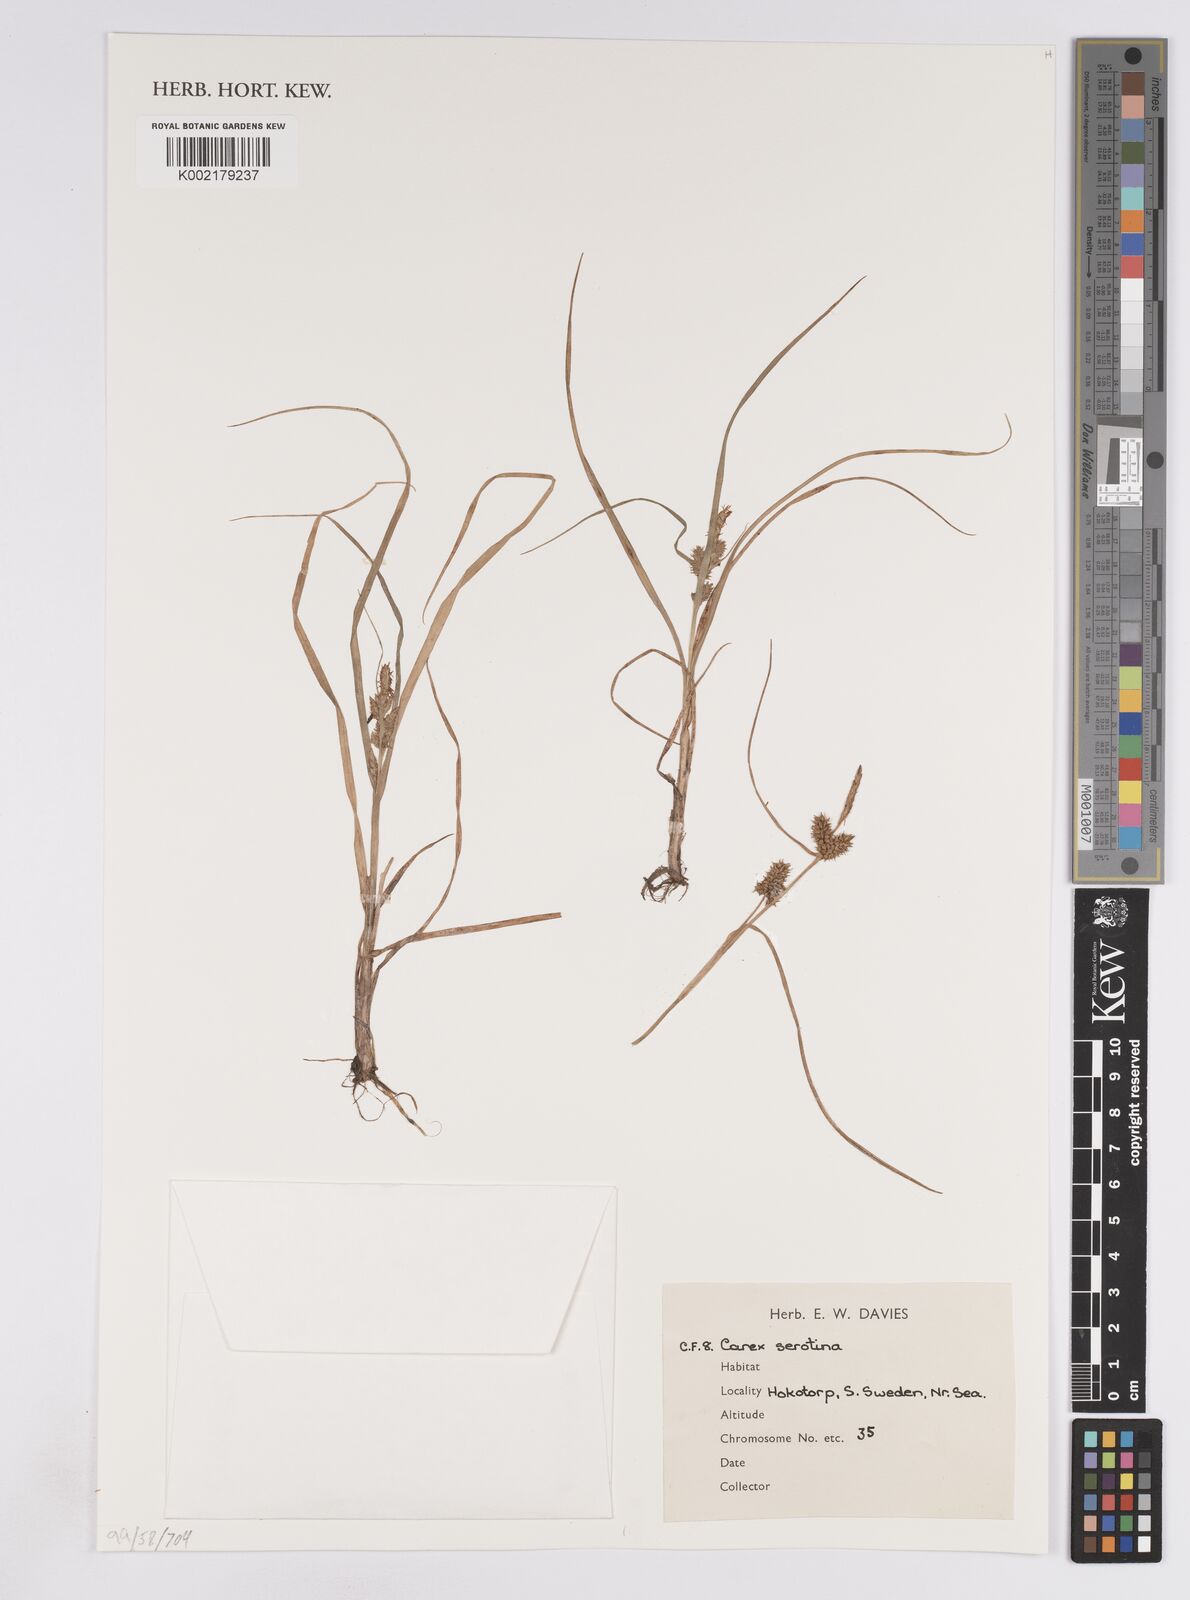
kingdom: Plantae
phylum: Tracheophyta
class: Liliopsida
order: Poales
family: Cyperaceae
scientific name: Cyperaceae
